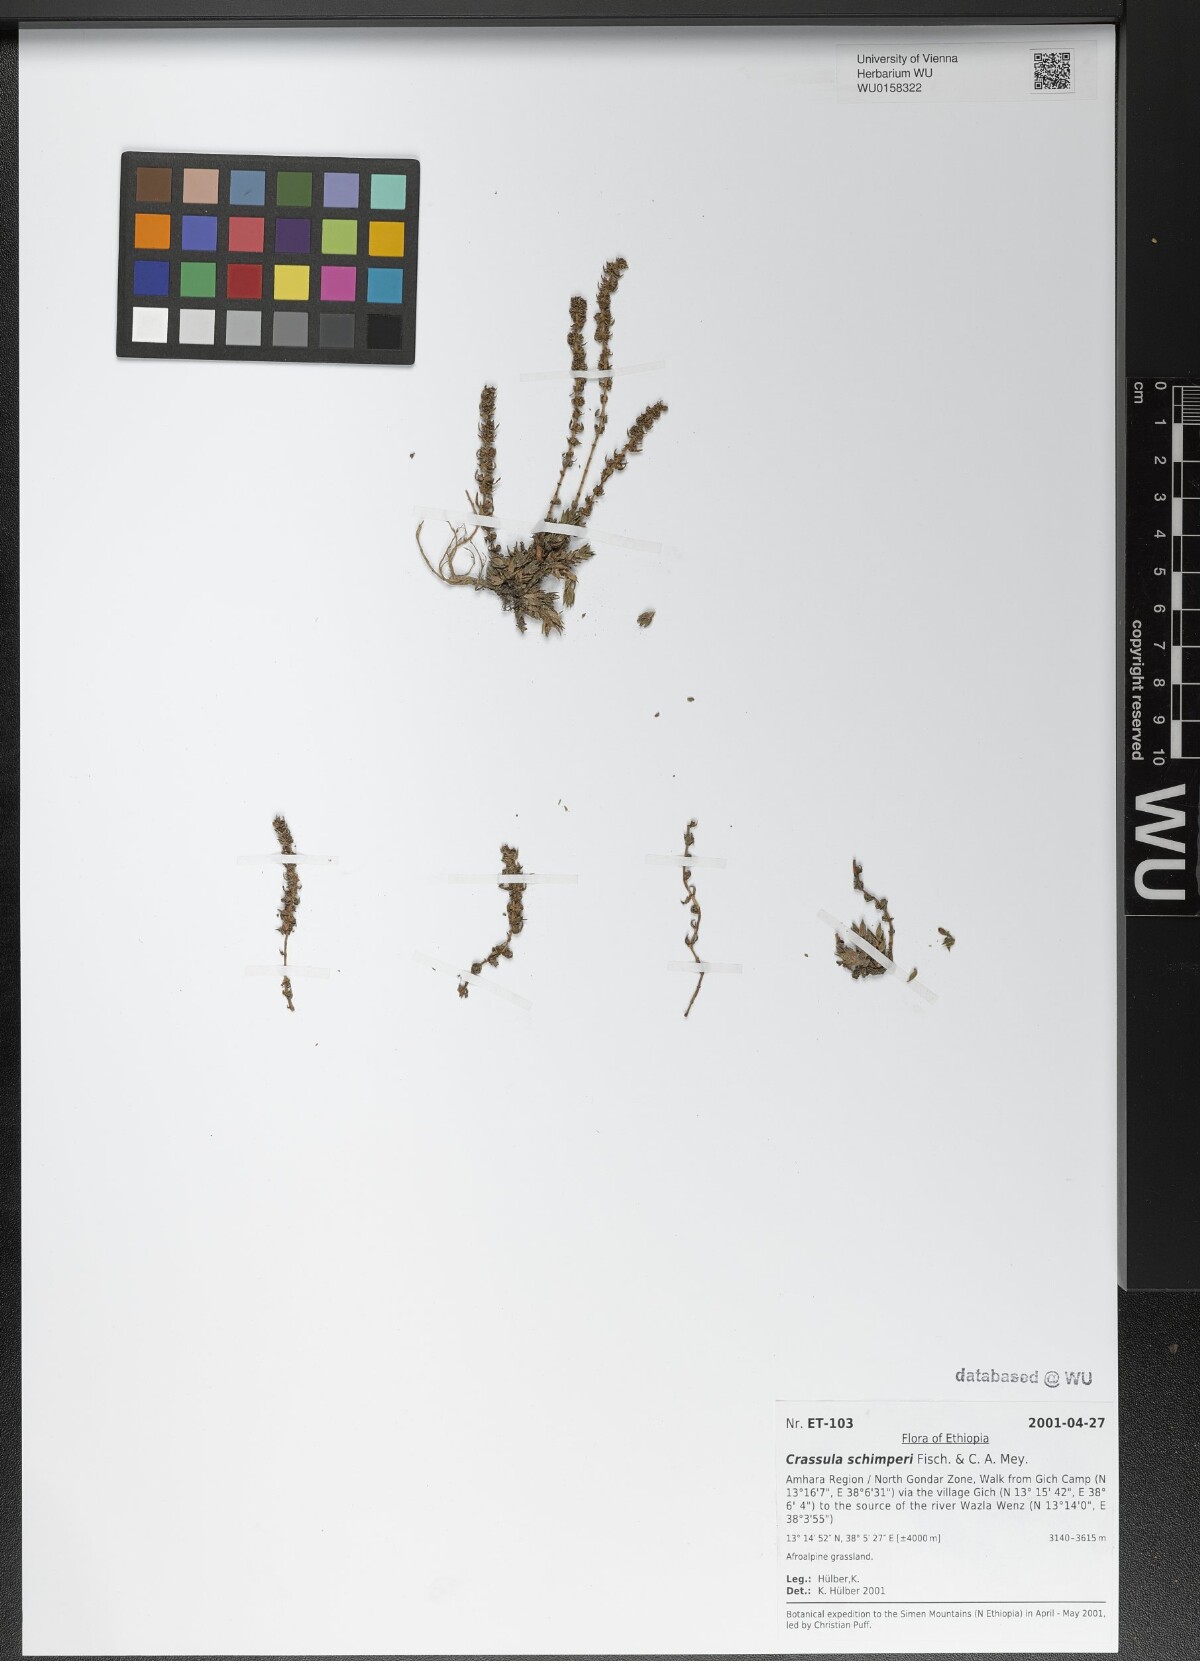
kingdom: Plantae
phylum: Tracheophyta
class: Magnoliopsida
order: Saxifragales
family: Crassulaceae
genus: Crassula
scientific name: Crassula schimperi
